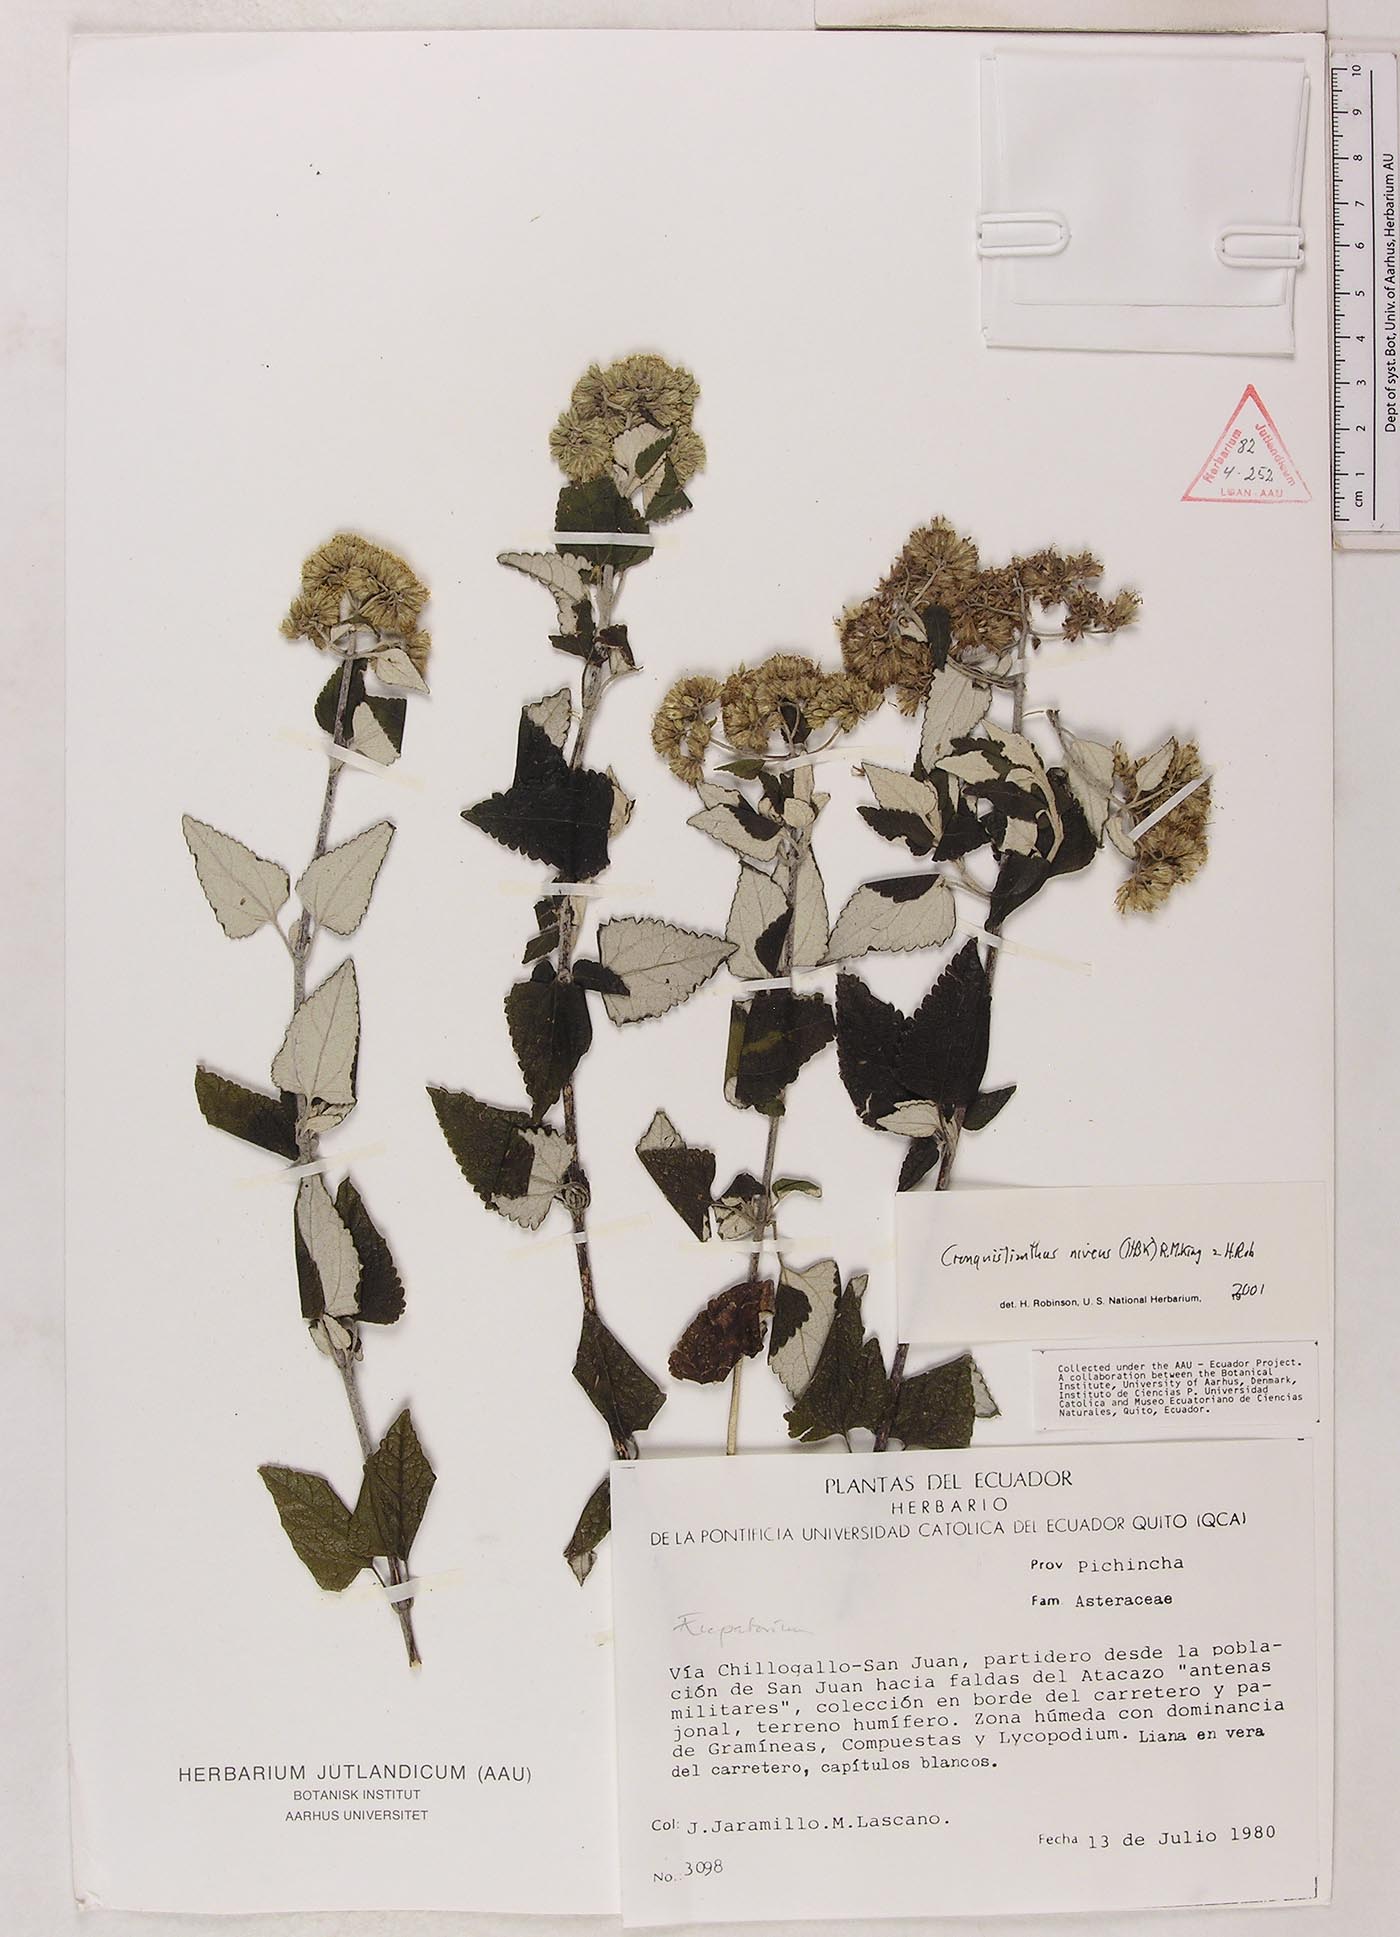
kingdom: Plantae
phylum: Tracheophyta
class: Magnoliopsida
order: Asterales
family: Asteraceae
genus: Cronquistianthus
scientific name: Cronquistianthus niveus
